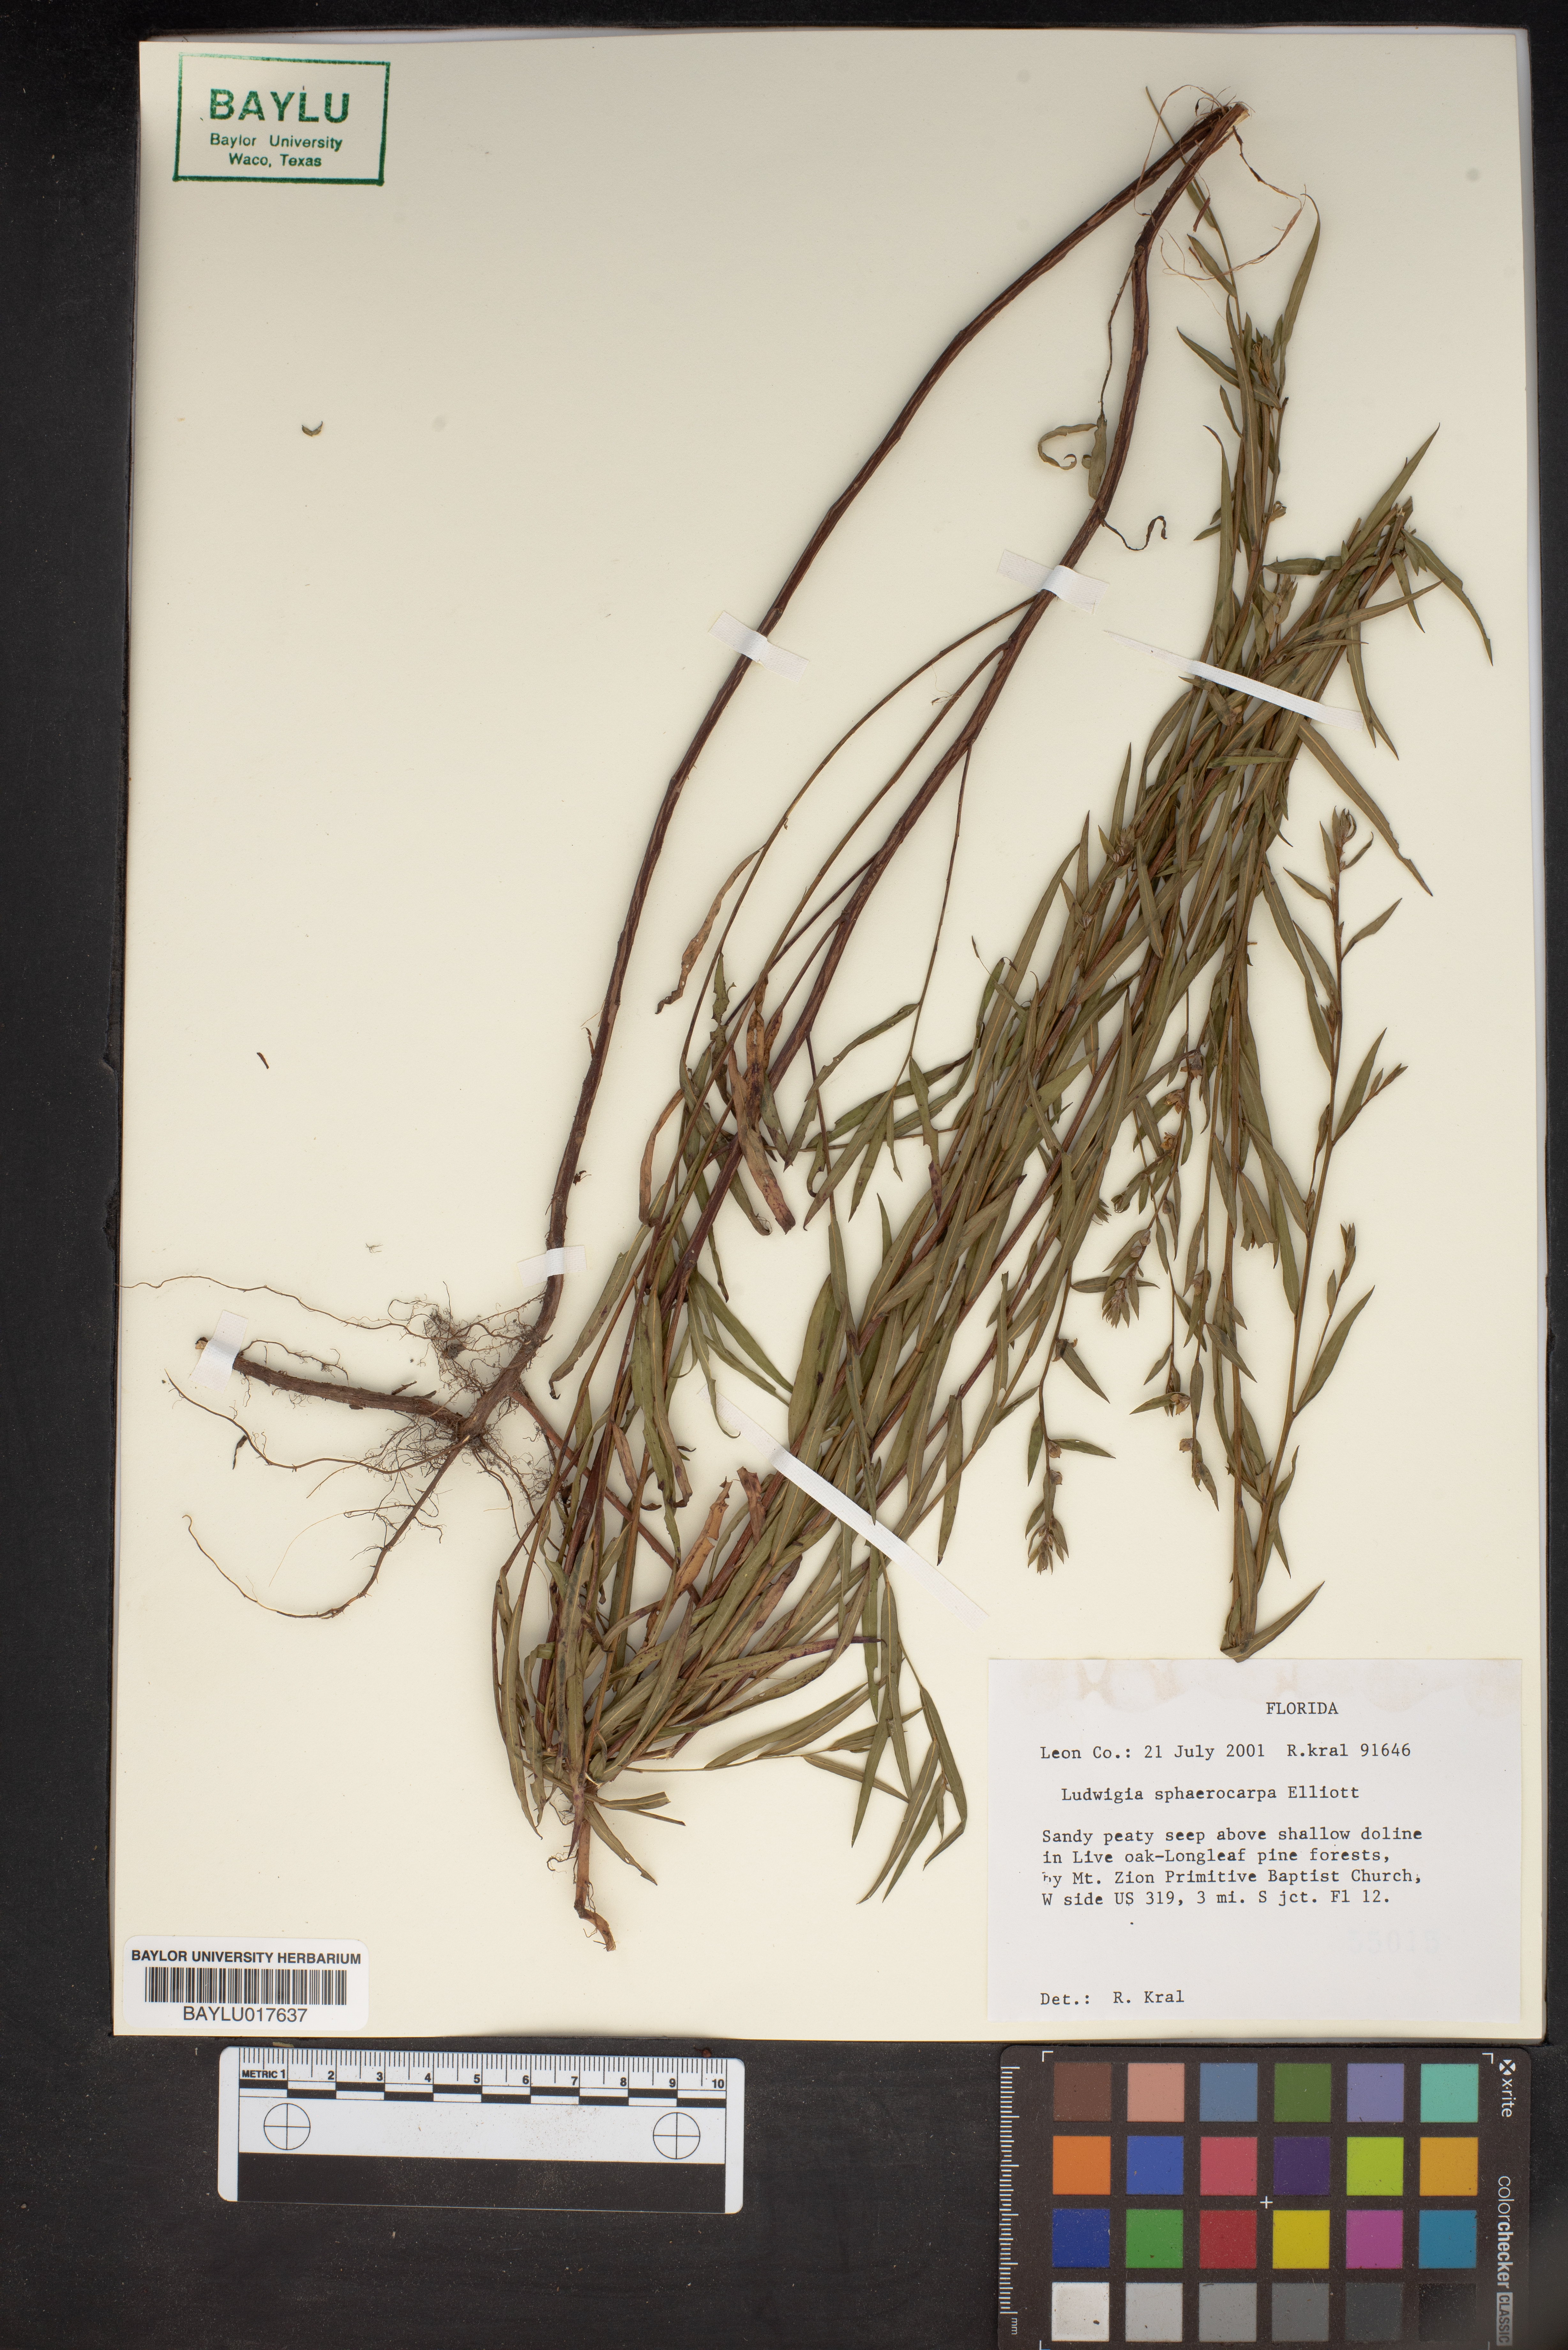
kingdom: Plantae
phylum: Tracheophyta
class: Magnoliopsida
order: Myrtales
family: Onagraceae
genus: Ludwigia
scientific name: Ludwigia sphaerocarpa
